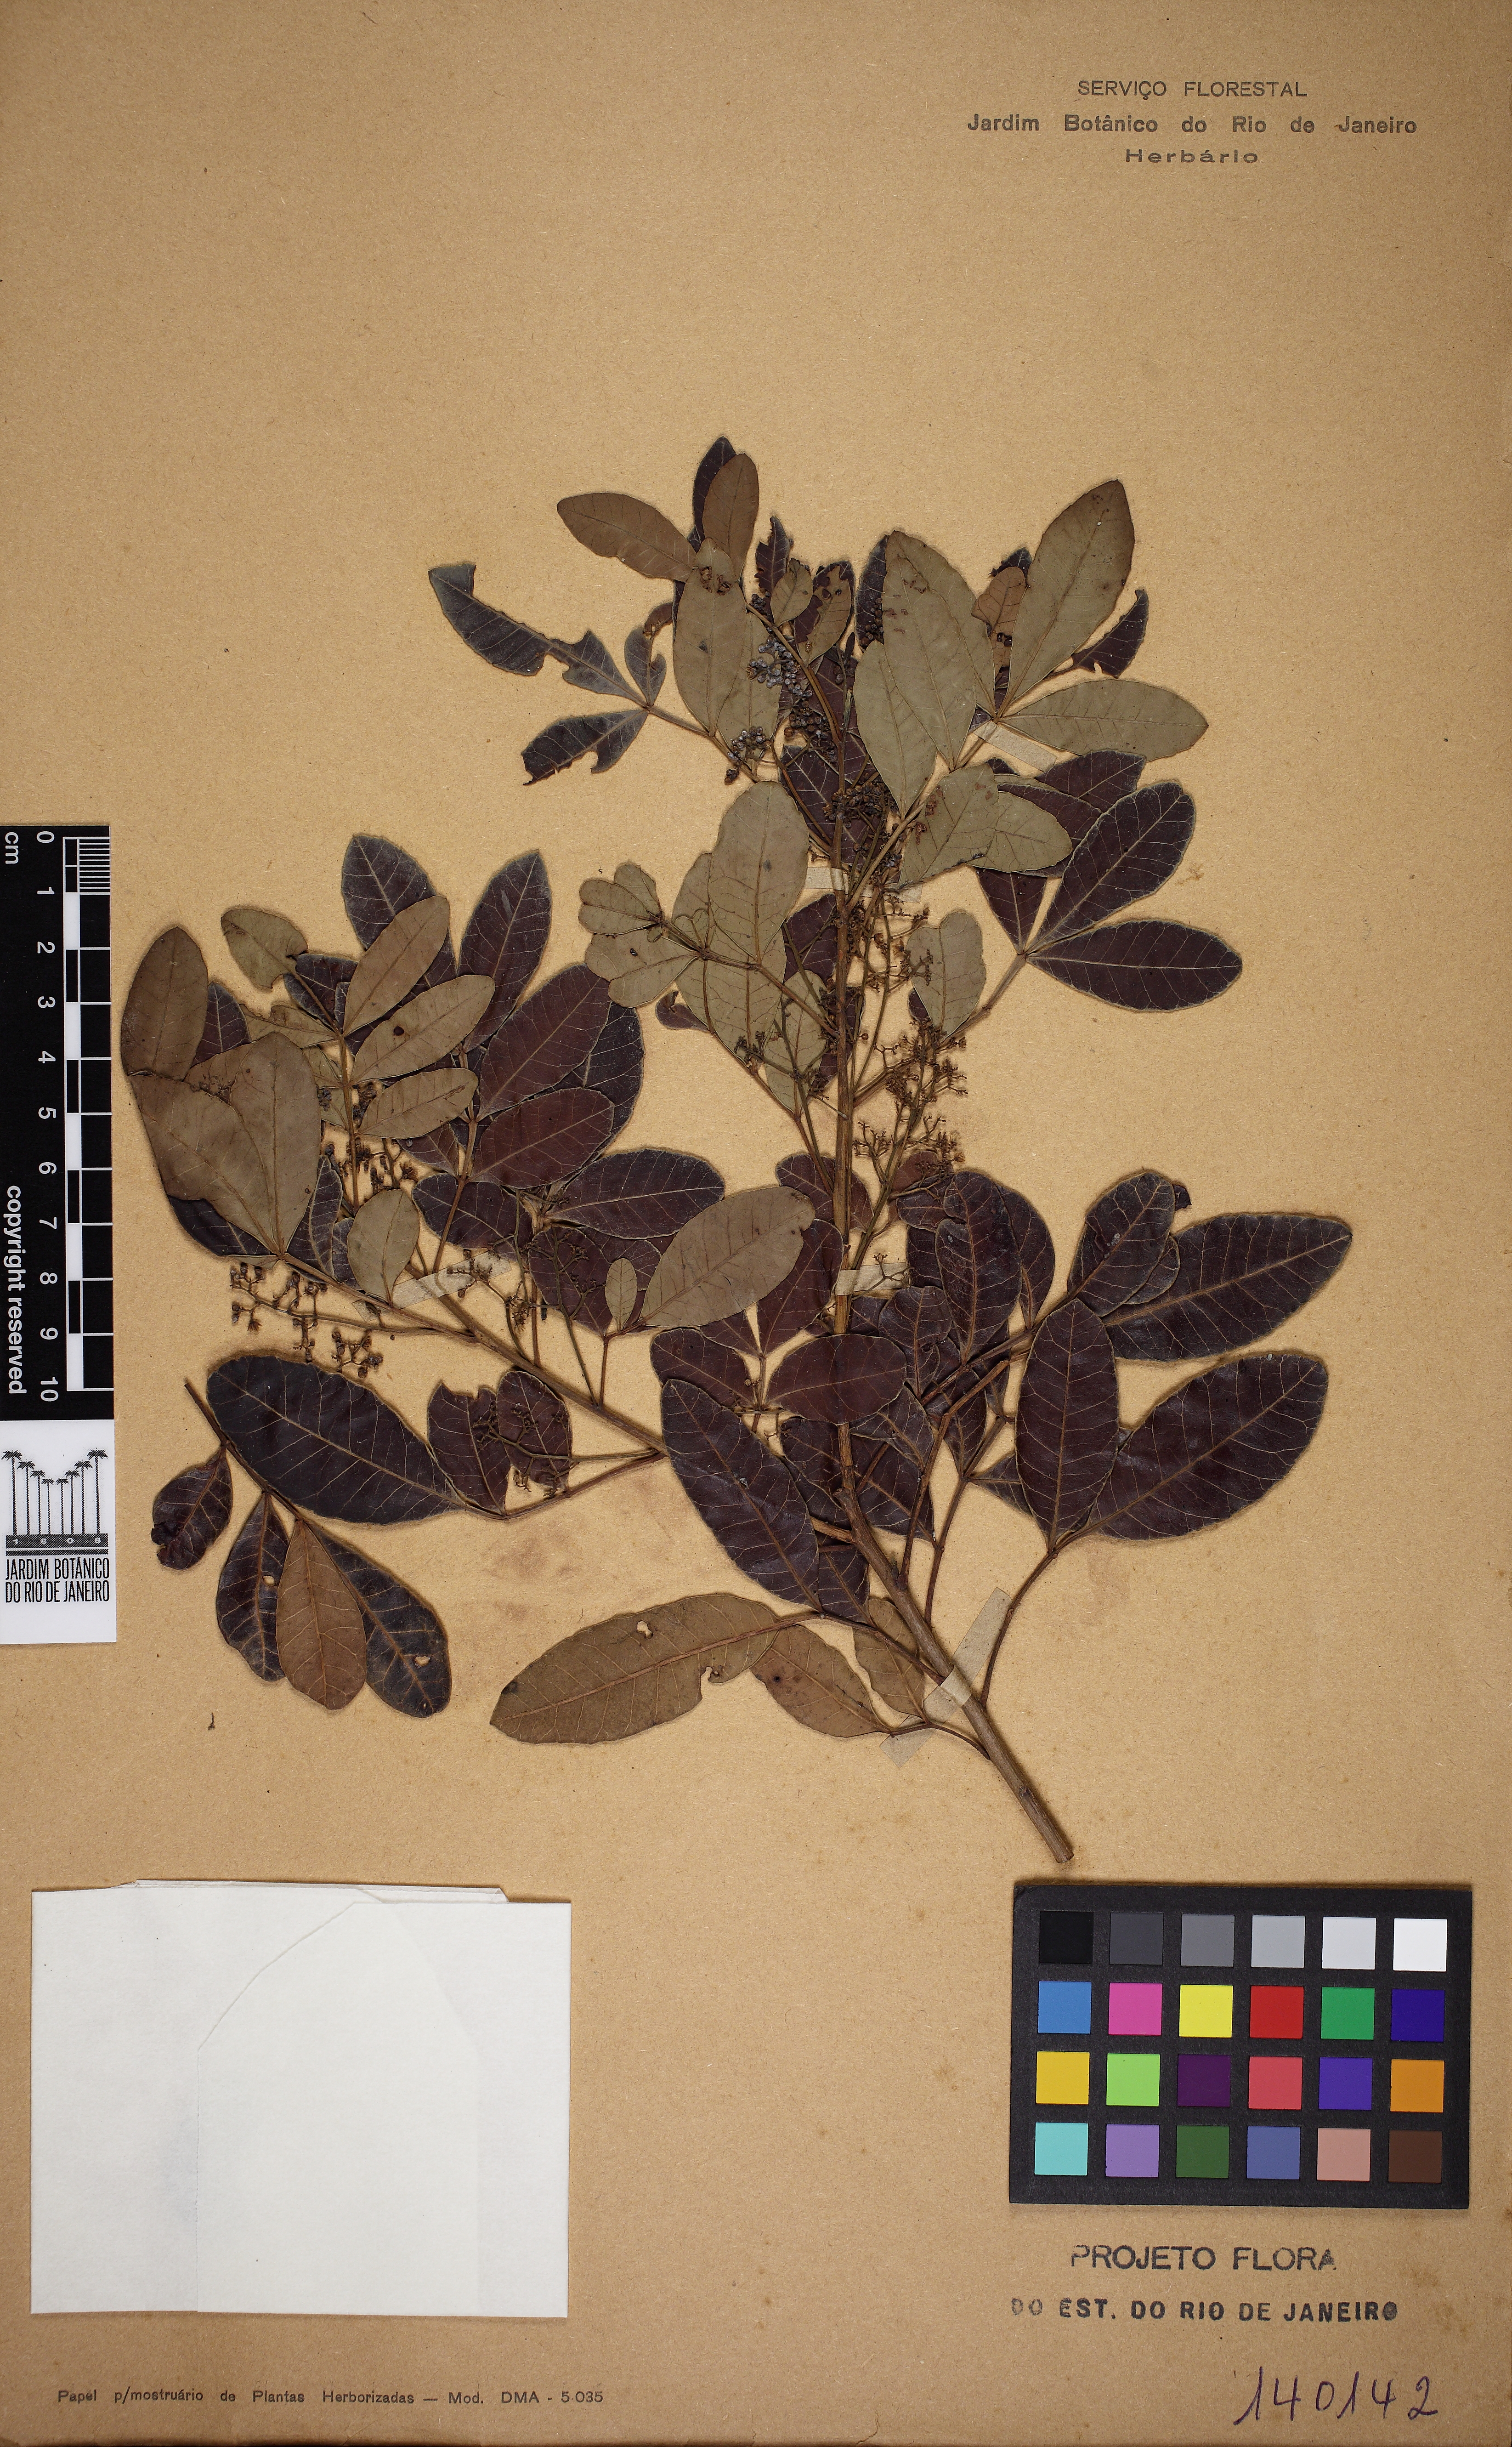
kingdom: Plantae
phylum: Tracheophyta
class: Magnoliopsida
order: Sapindales
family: Anacardiaceae
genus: Schinus
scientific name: Schinus terebinthifolia
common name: Brazilian peppertree
